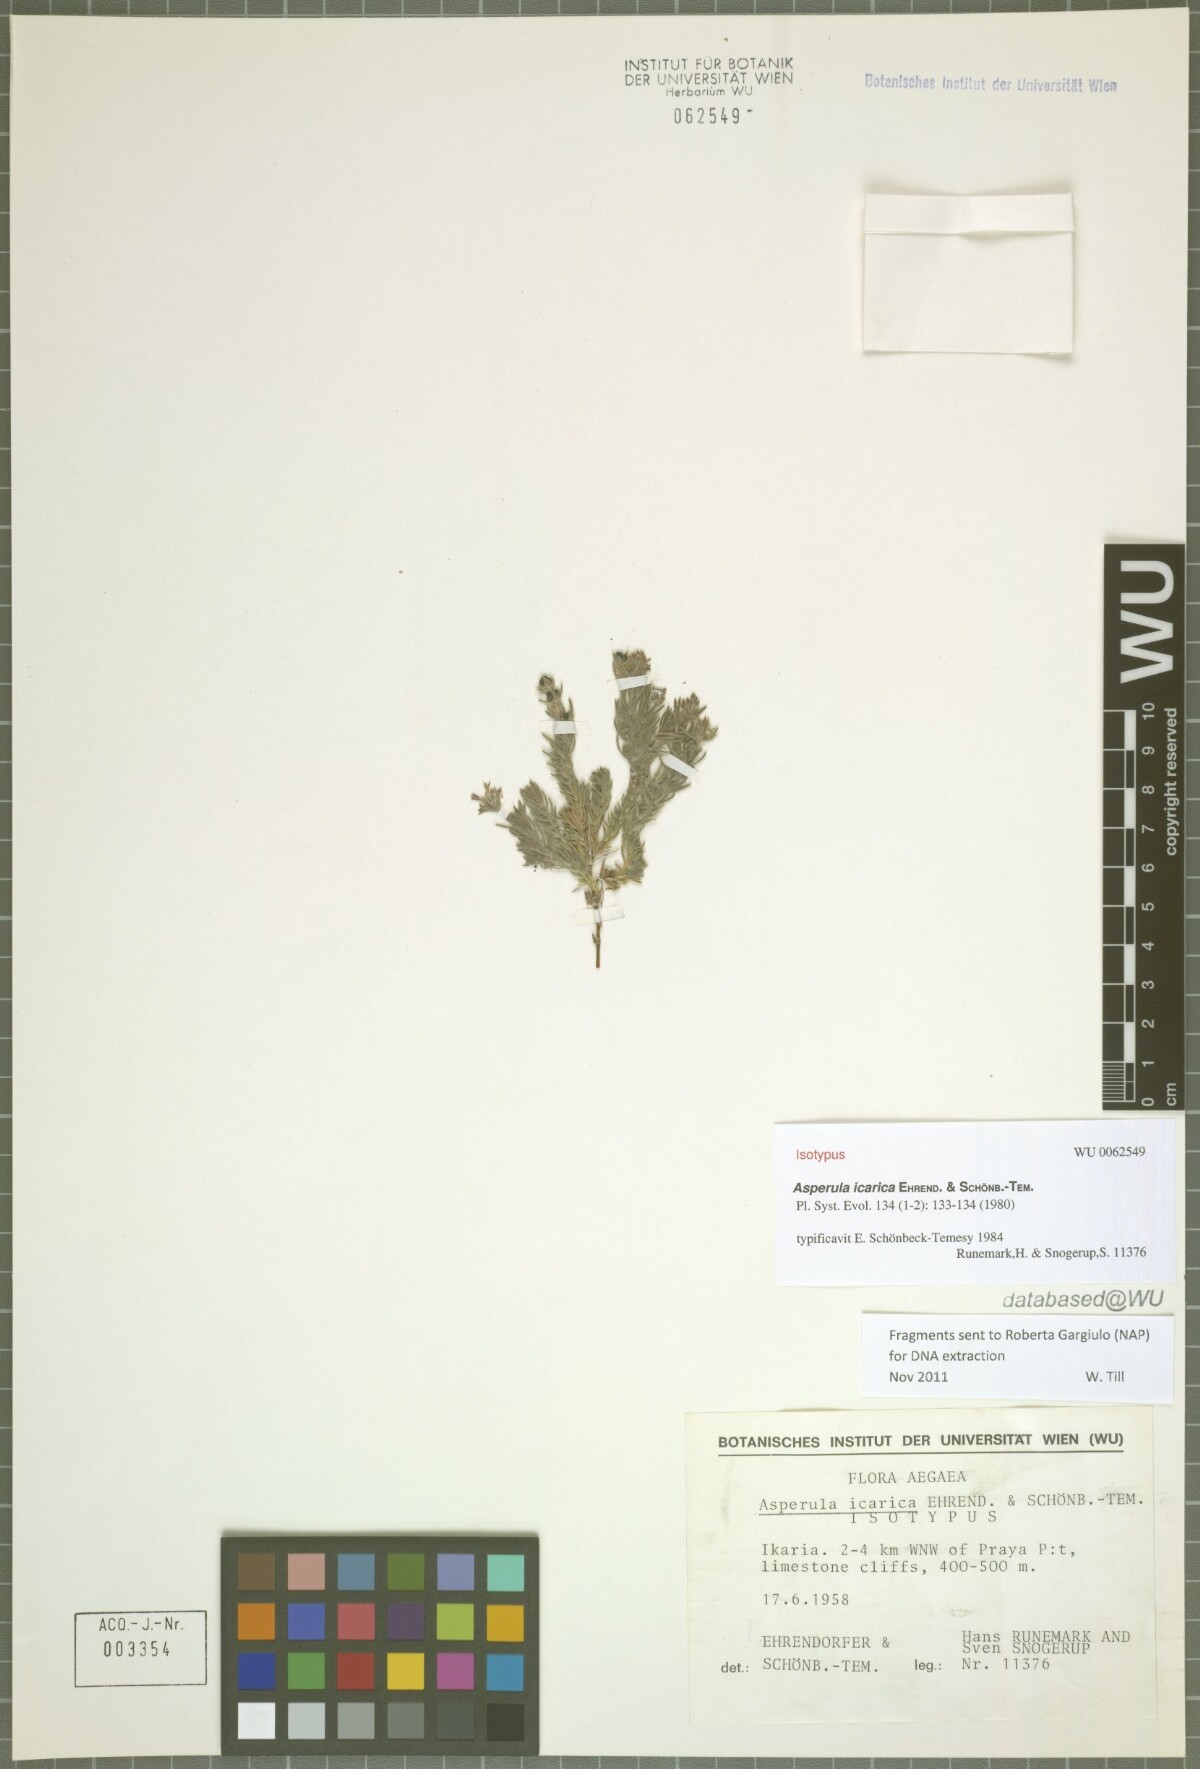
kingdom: Plantae
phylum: Tracheophyta
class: Magnoliopsida
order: Gentianales
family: Rubiaceae
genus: Cynanchica
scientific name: Cynanchica icarica
